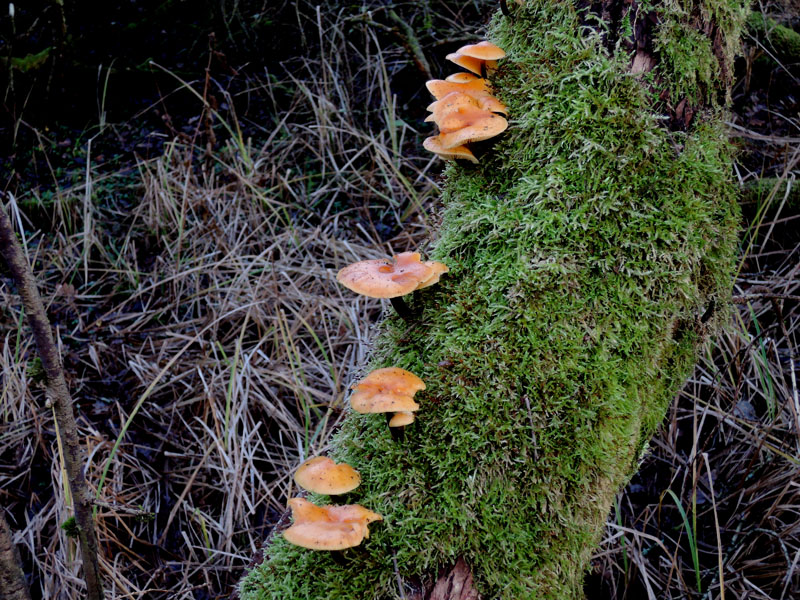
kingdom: Fungi
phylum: Basidiomycota
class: Agaricomycetes
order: Agaricales
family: Physalacriaceae
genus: Flammulina
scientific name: Flammulina elastica
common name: pile-fløjlsfod
